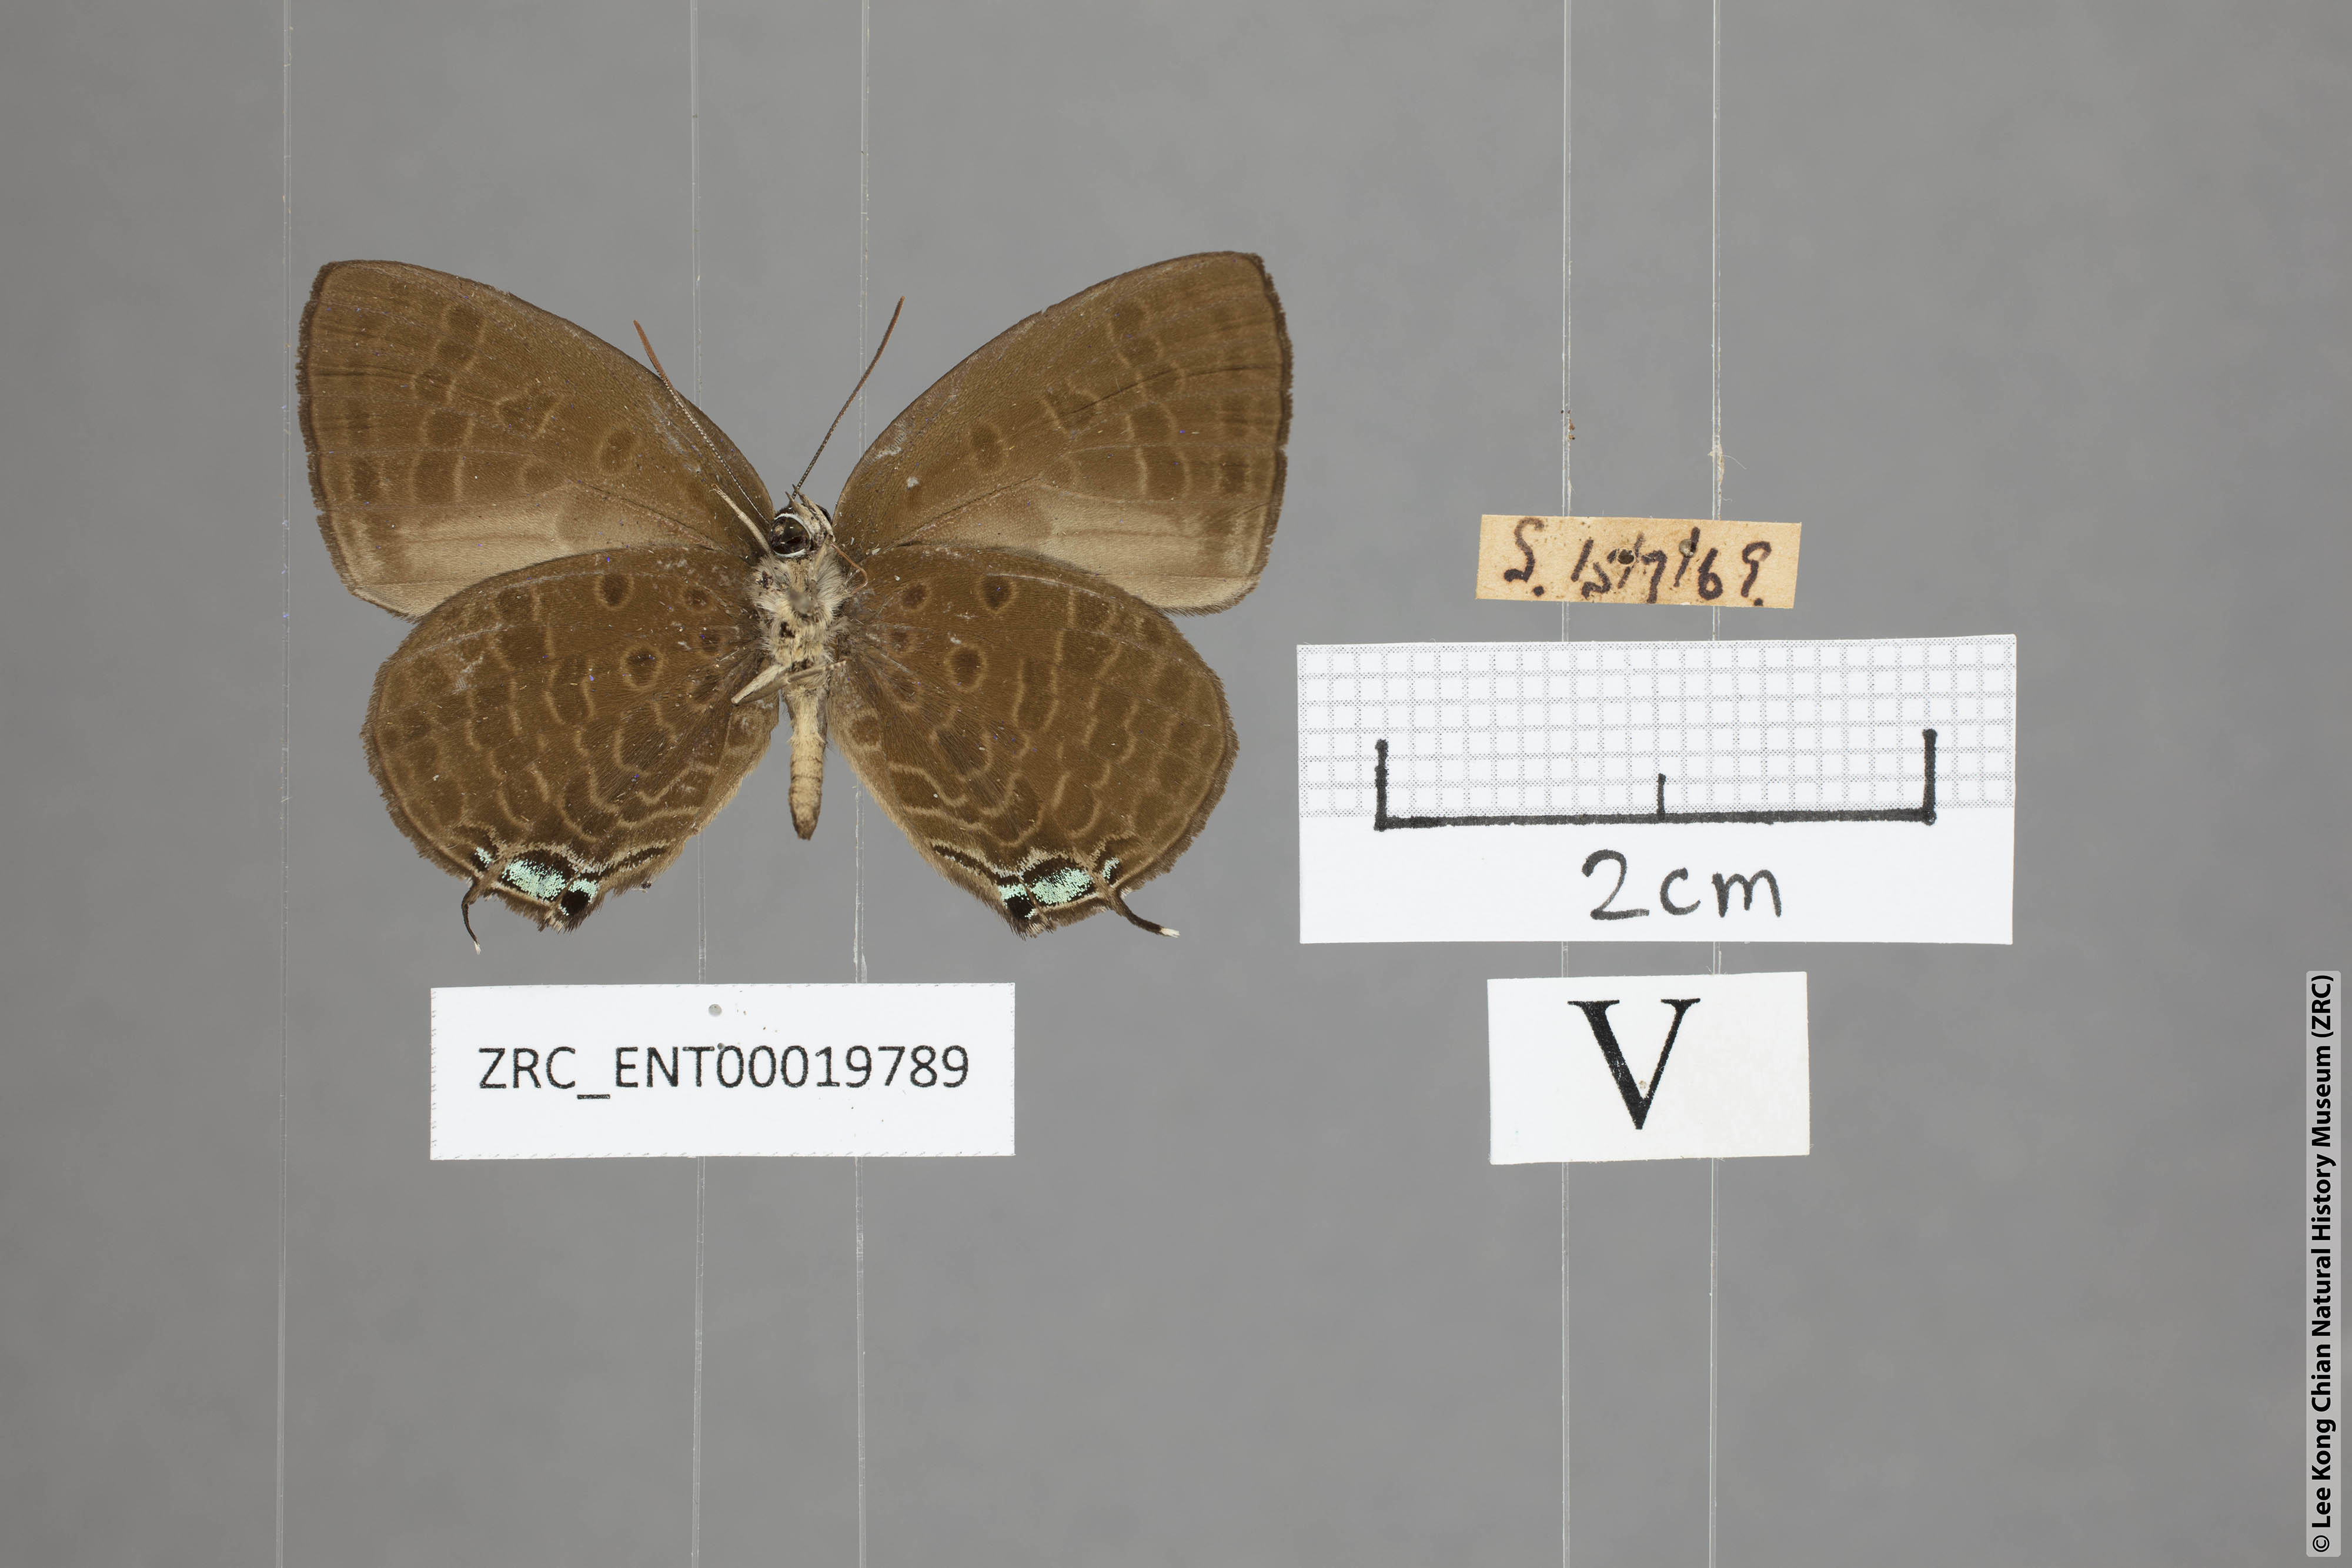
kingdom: Animalia
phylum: Arthropoda
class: Insecta
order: Lepidoptera
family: Lycaenidae
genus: Arhopala
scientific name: Arhopala phaenops
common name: Sumatran oakblue
